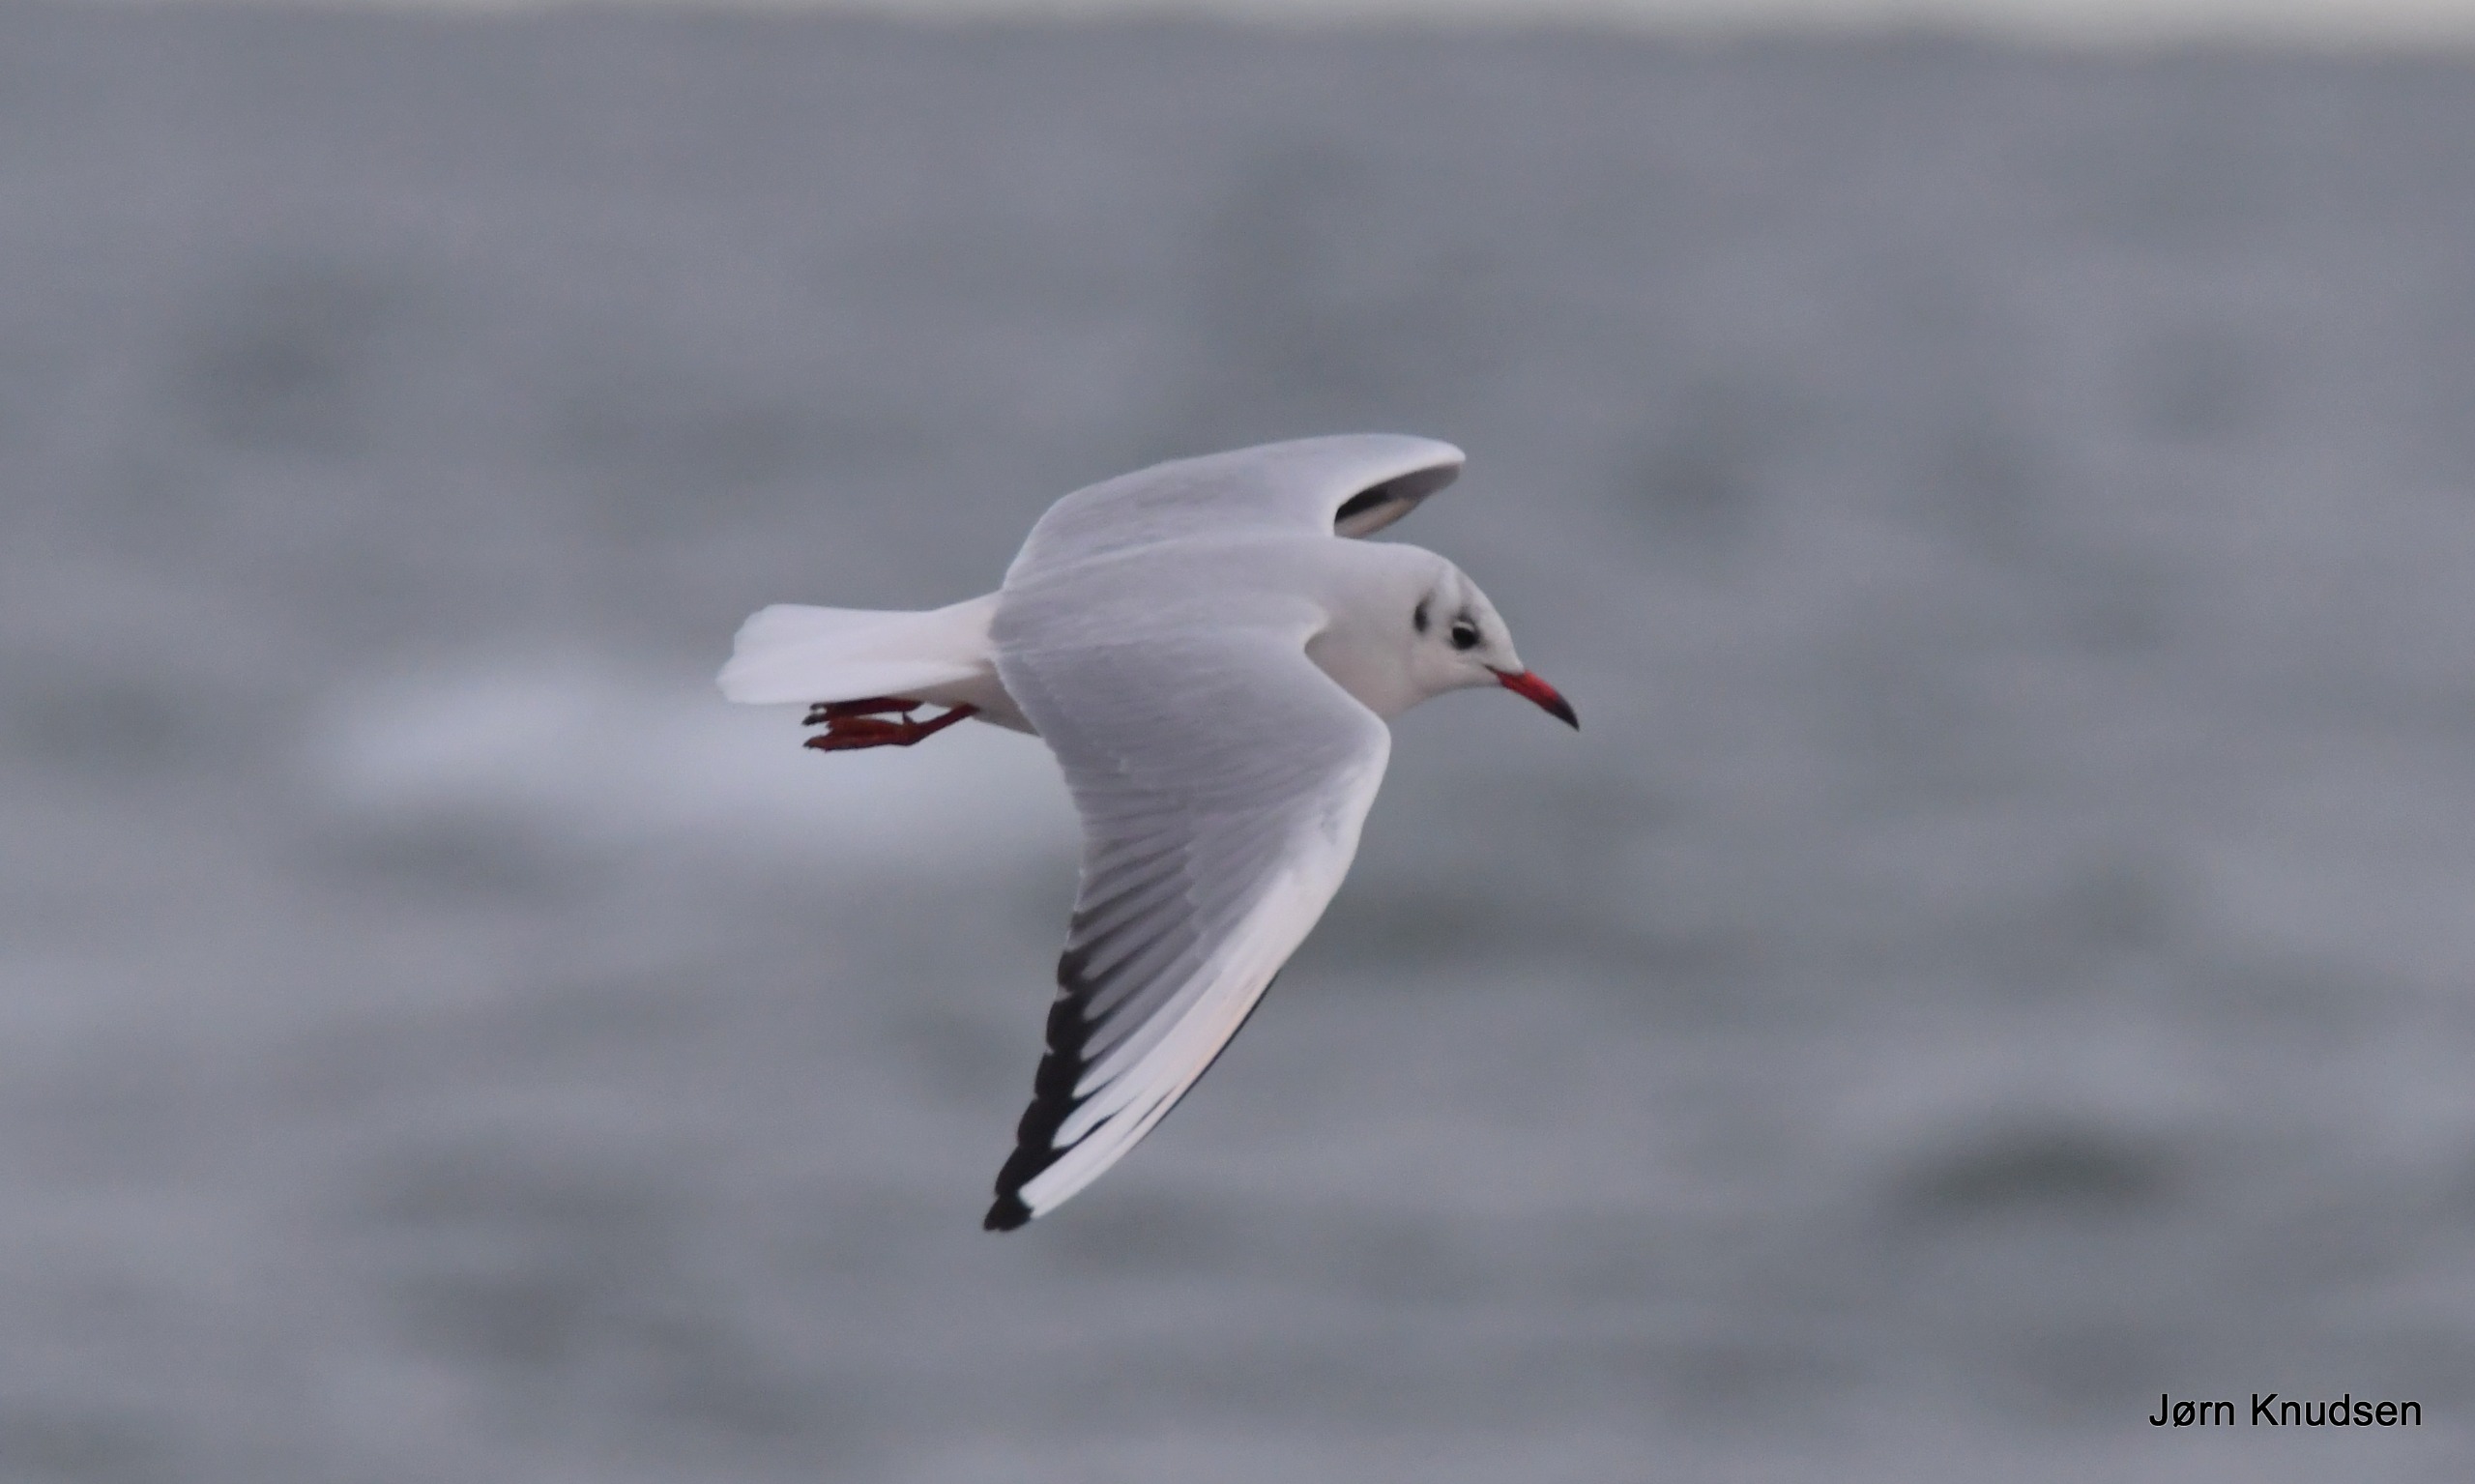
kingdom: Animalia
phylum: Chordata
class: Aves
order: Charadriiformes
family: Laridae
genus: Chroicocephalus
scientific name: Chroicocephalus ridibundus
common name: Hættemåge
